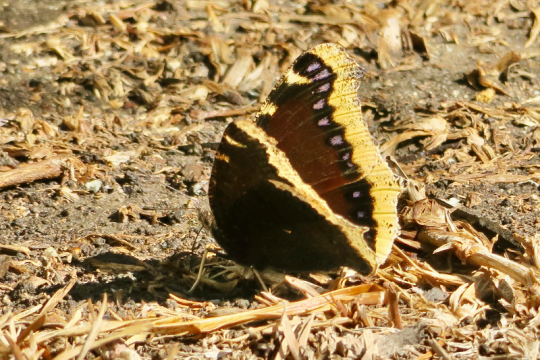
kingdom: Animalia
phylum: Arthropoda
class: Insecta
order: Lepidoptera
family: Nymphalidae
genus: Nymphalis
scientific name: Nymphalis antiopa
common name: Mourning Cloak
